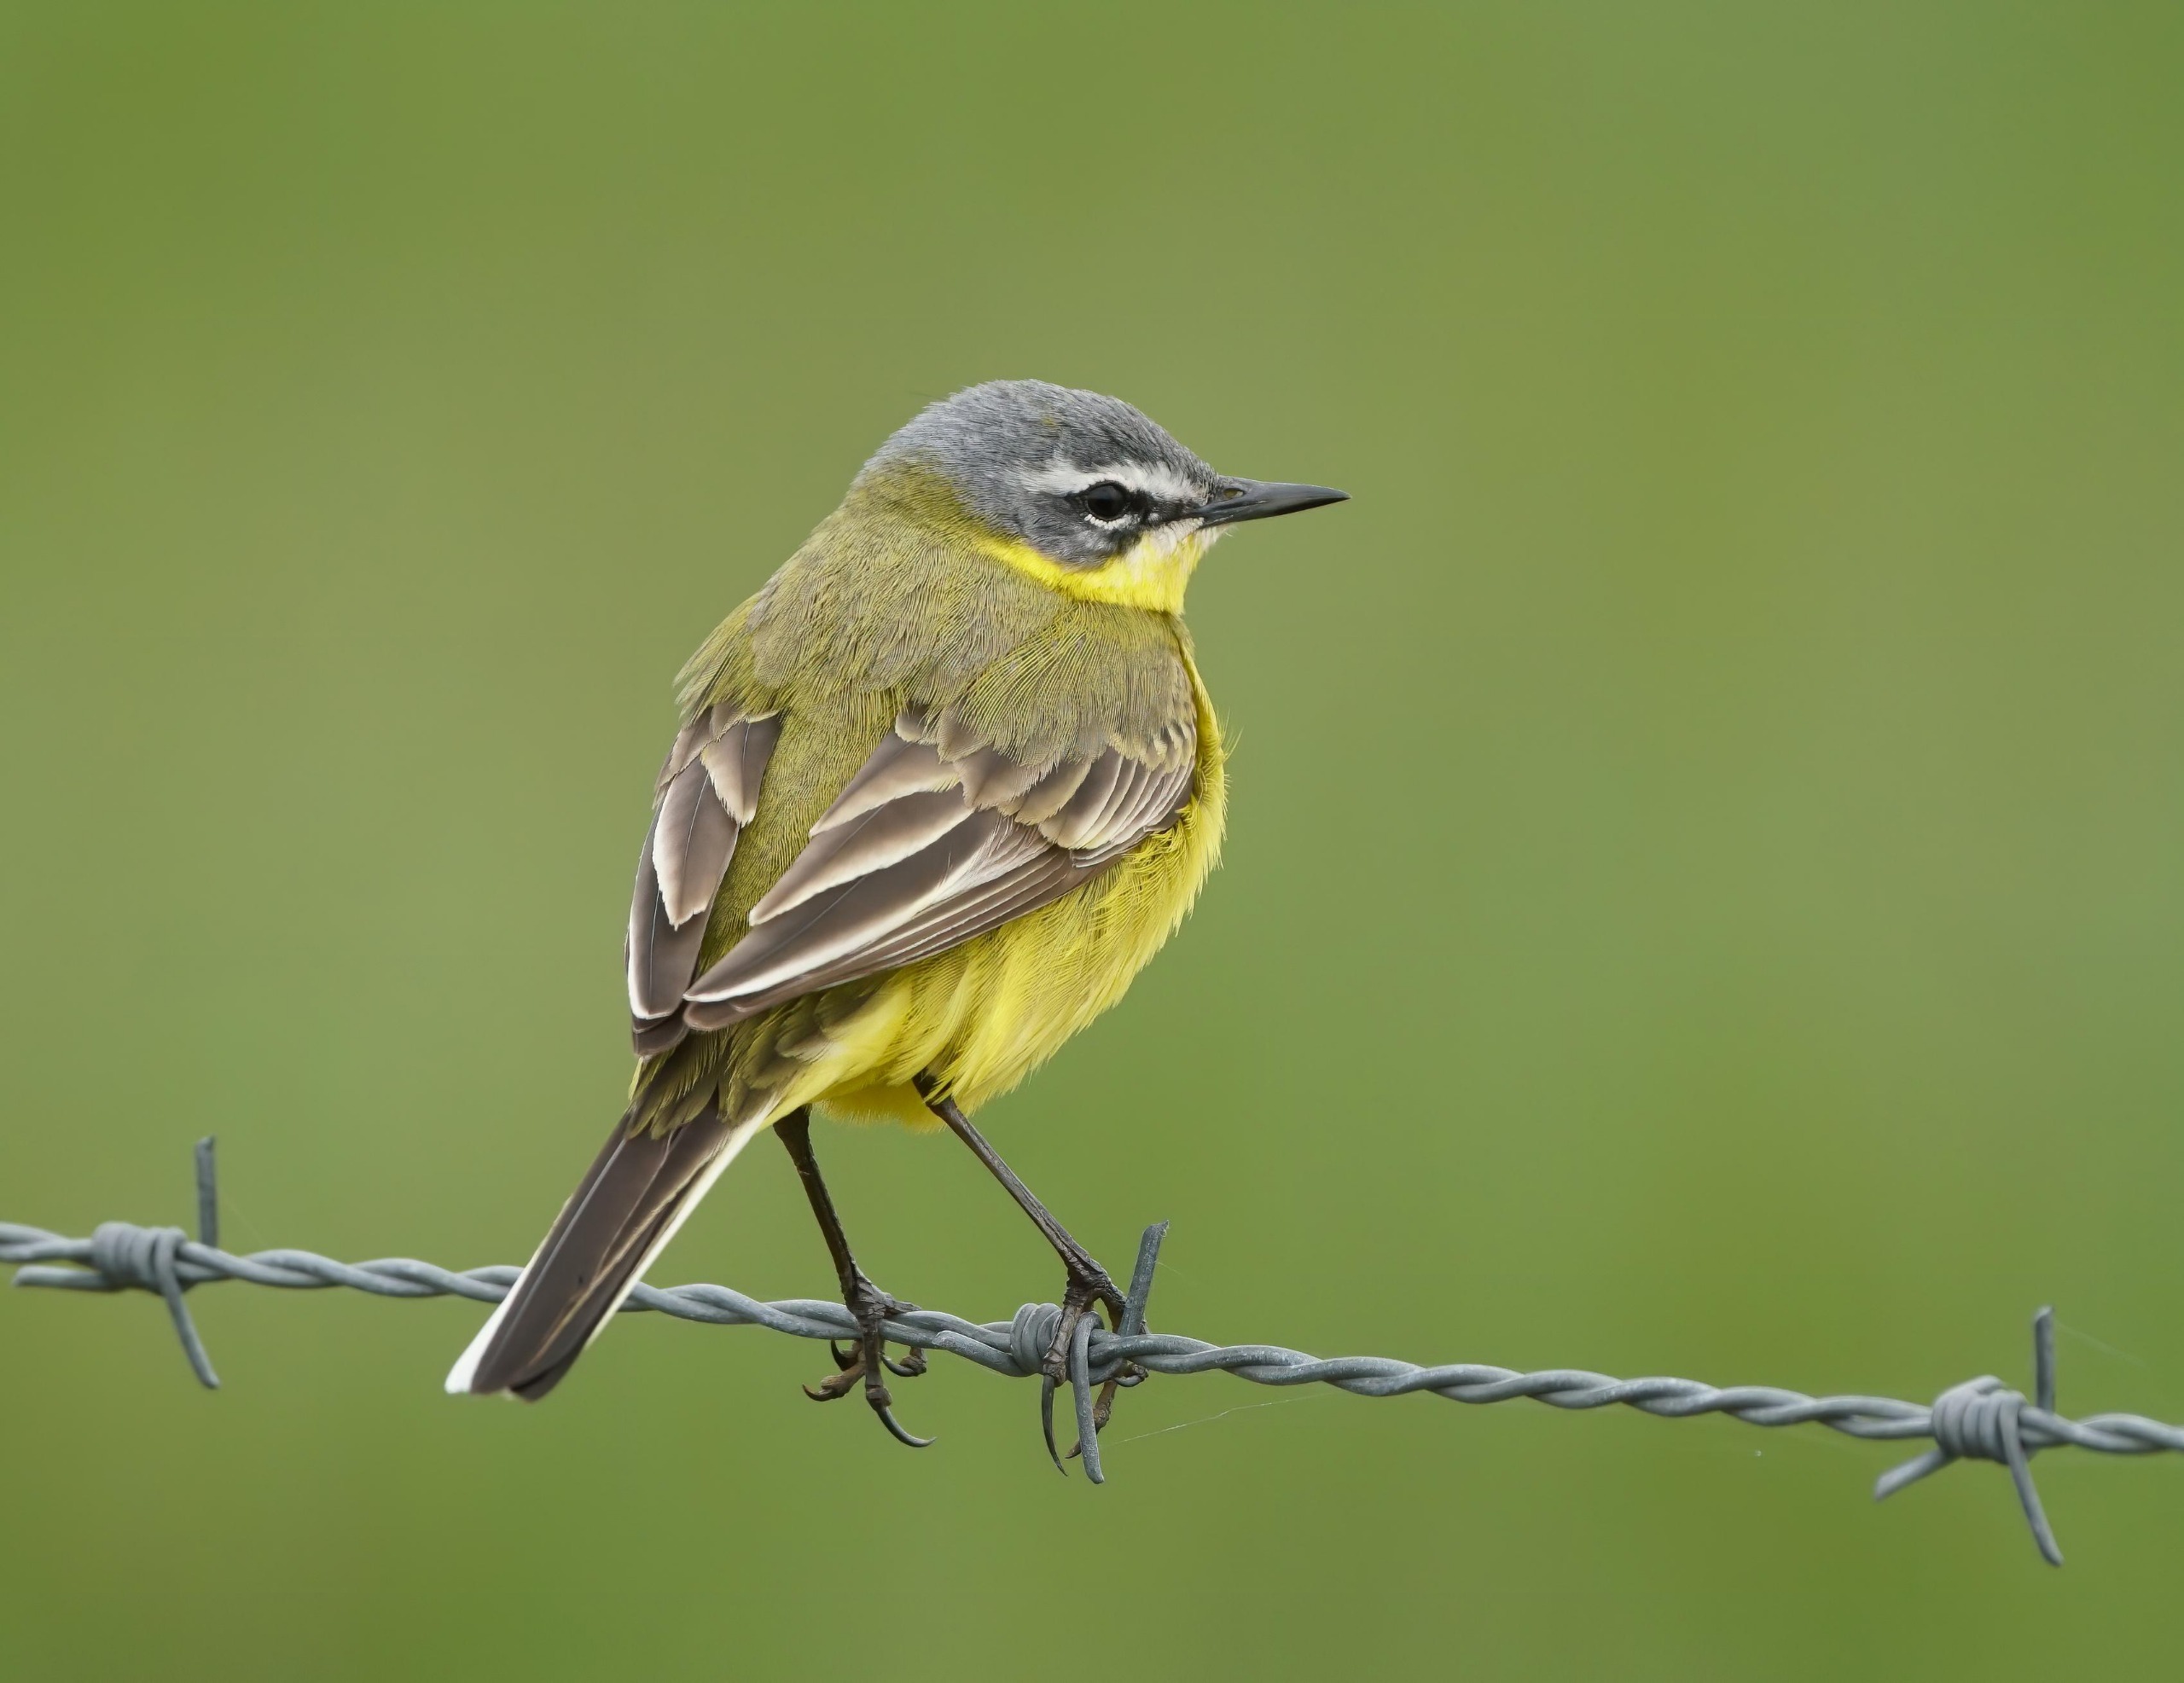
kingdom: Animalia
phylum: Chordata
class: Aves
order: Passeriformes
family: Motacillidae
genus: Motacilla
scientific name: Motacilla flava
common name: Gul vipstjert
